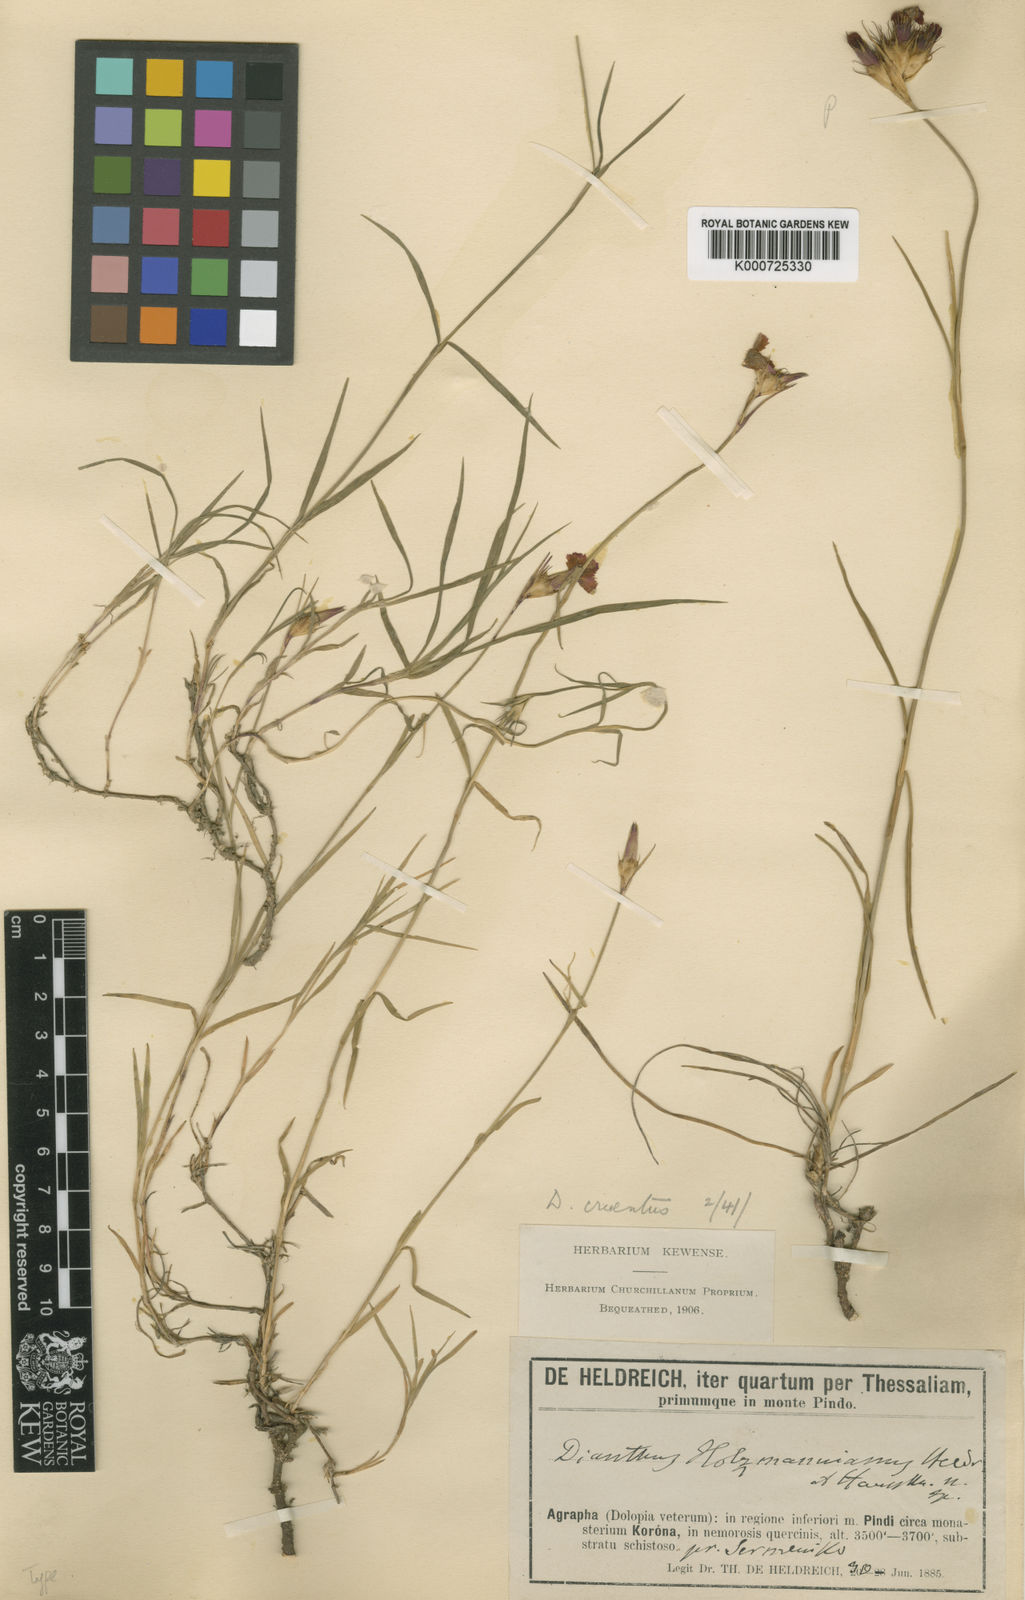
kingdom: Plantae
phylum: Tracheophyta
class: Magnoliopsida
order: Caryophyllales
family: Caryophyllaceae
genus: Dianthus
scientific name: Dianthus cruentus
